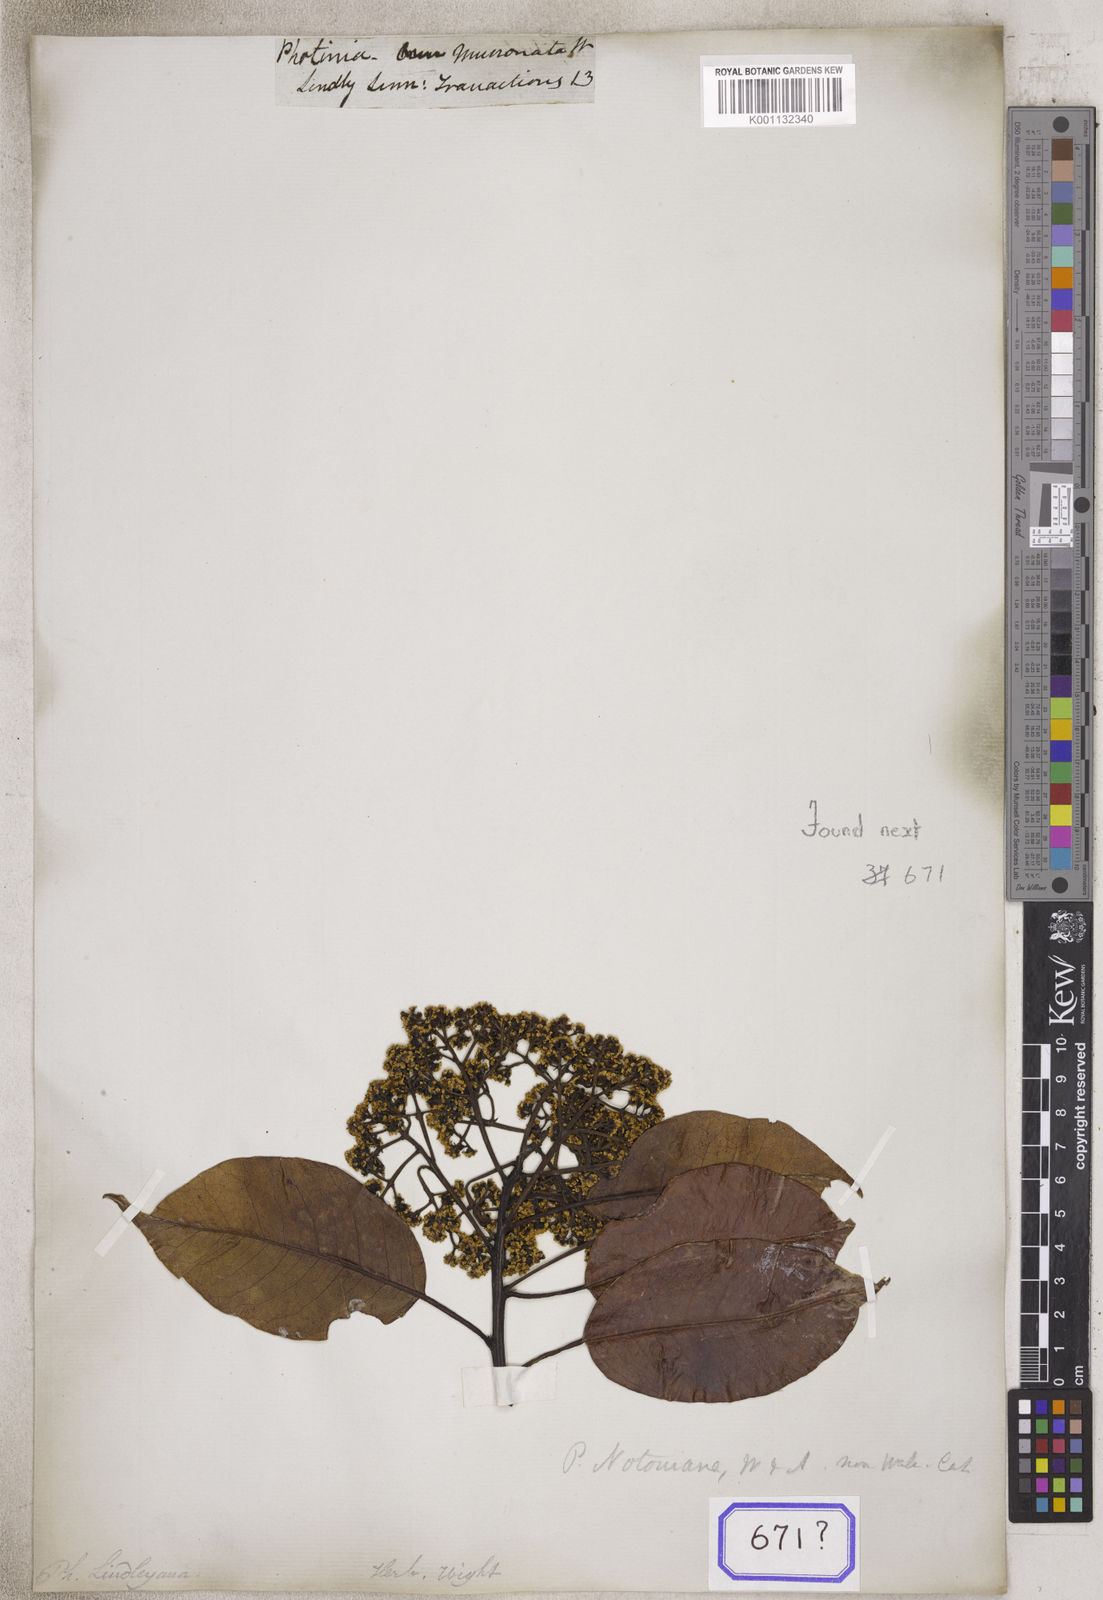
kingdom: Plantae
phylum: Tracheophyta
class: Magnoliopsida
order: Rosales
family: Rosaceae
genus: Photinia
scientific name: Photinia
